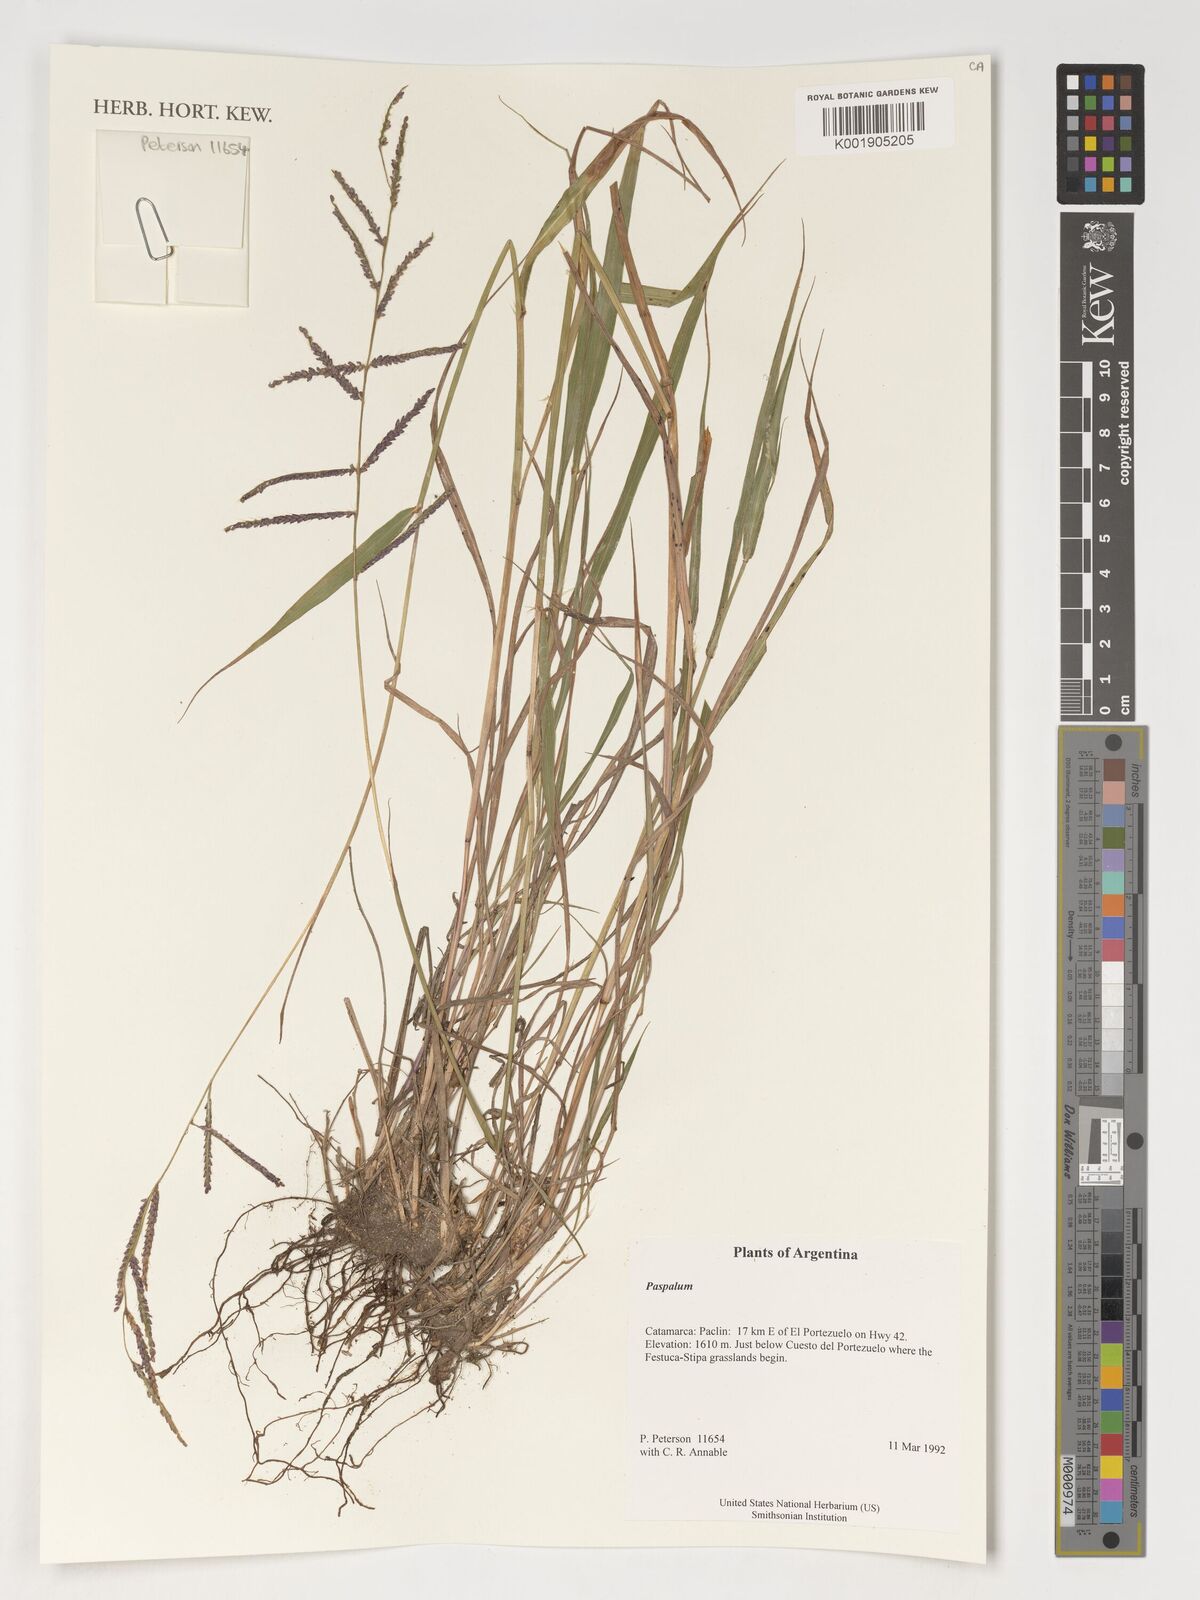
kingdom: Plantae
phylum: Tracheophyta
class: Liliopsida
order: Poales
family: Poaceae
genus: Paspalum
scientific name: Paspalum
